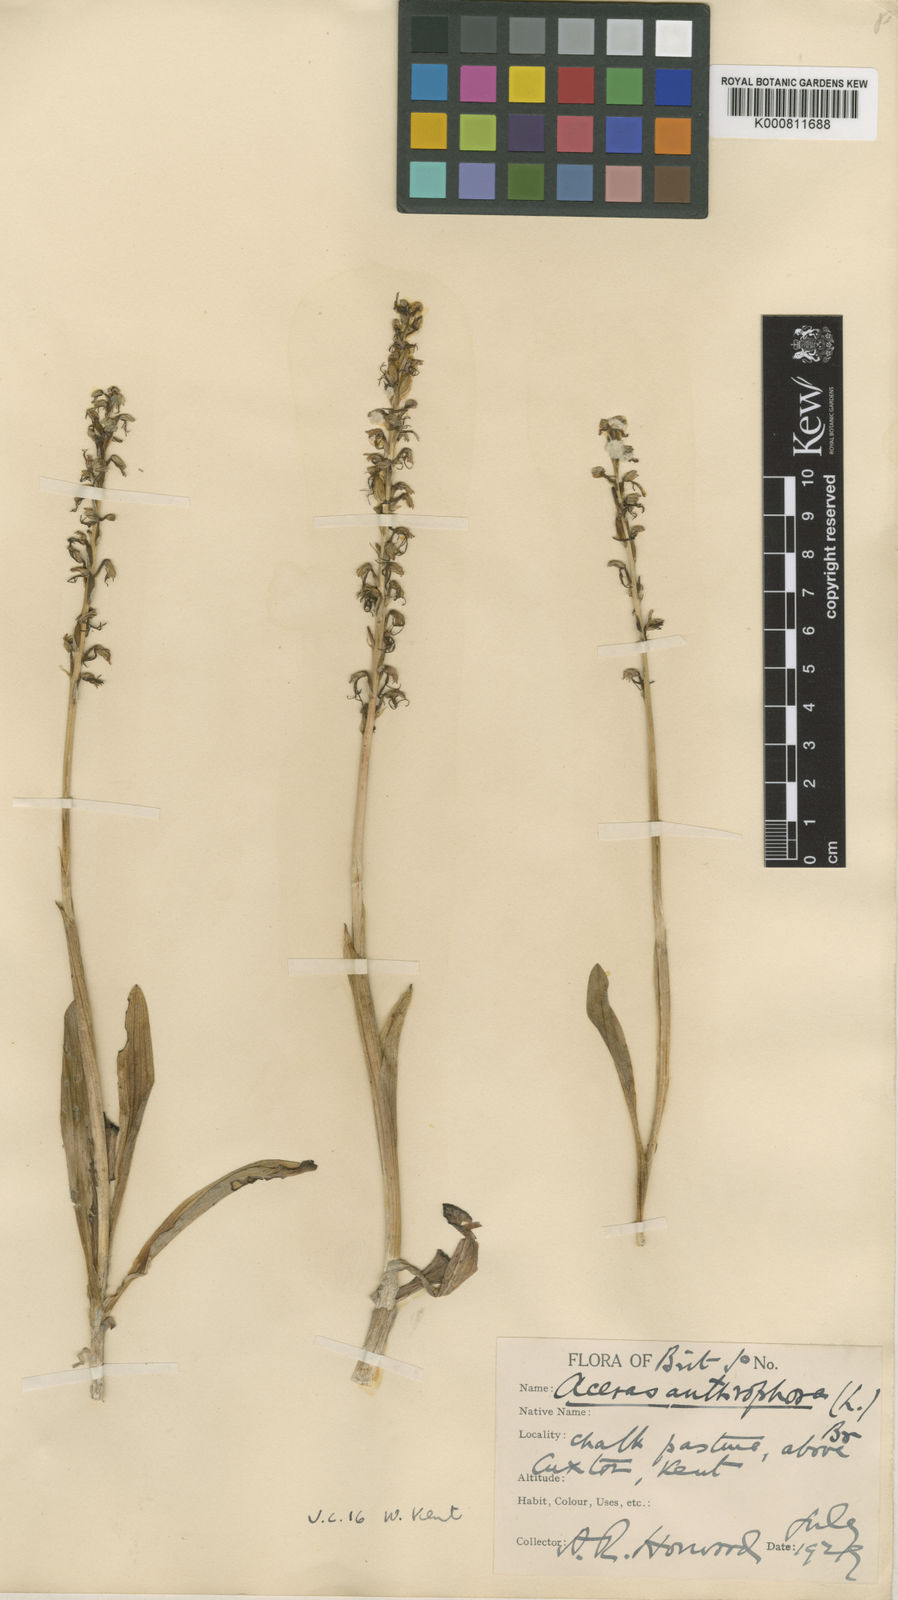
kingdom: Plantae
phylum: Tracheophyta
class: Liliopsida
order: Asparagales
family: Orchidaceae
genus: Orchis
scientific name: Orchis
